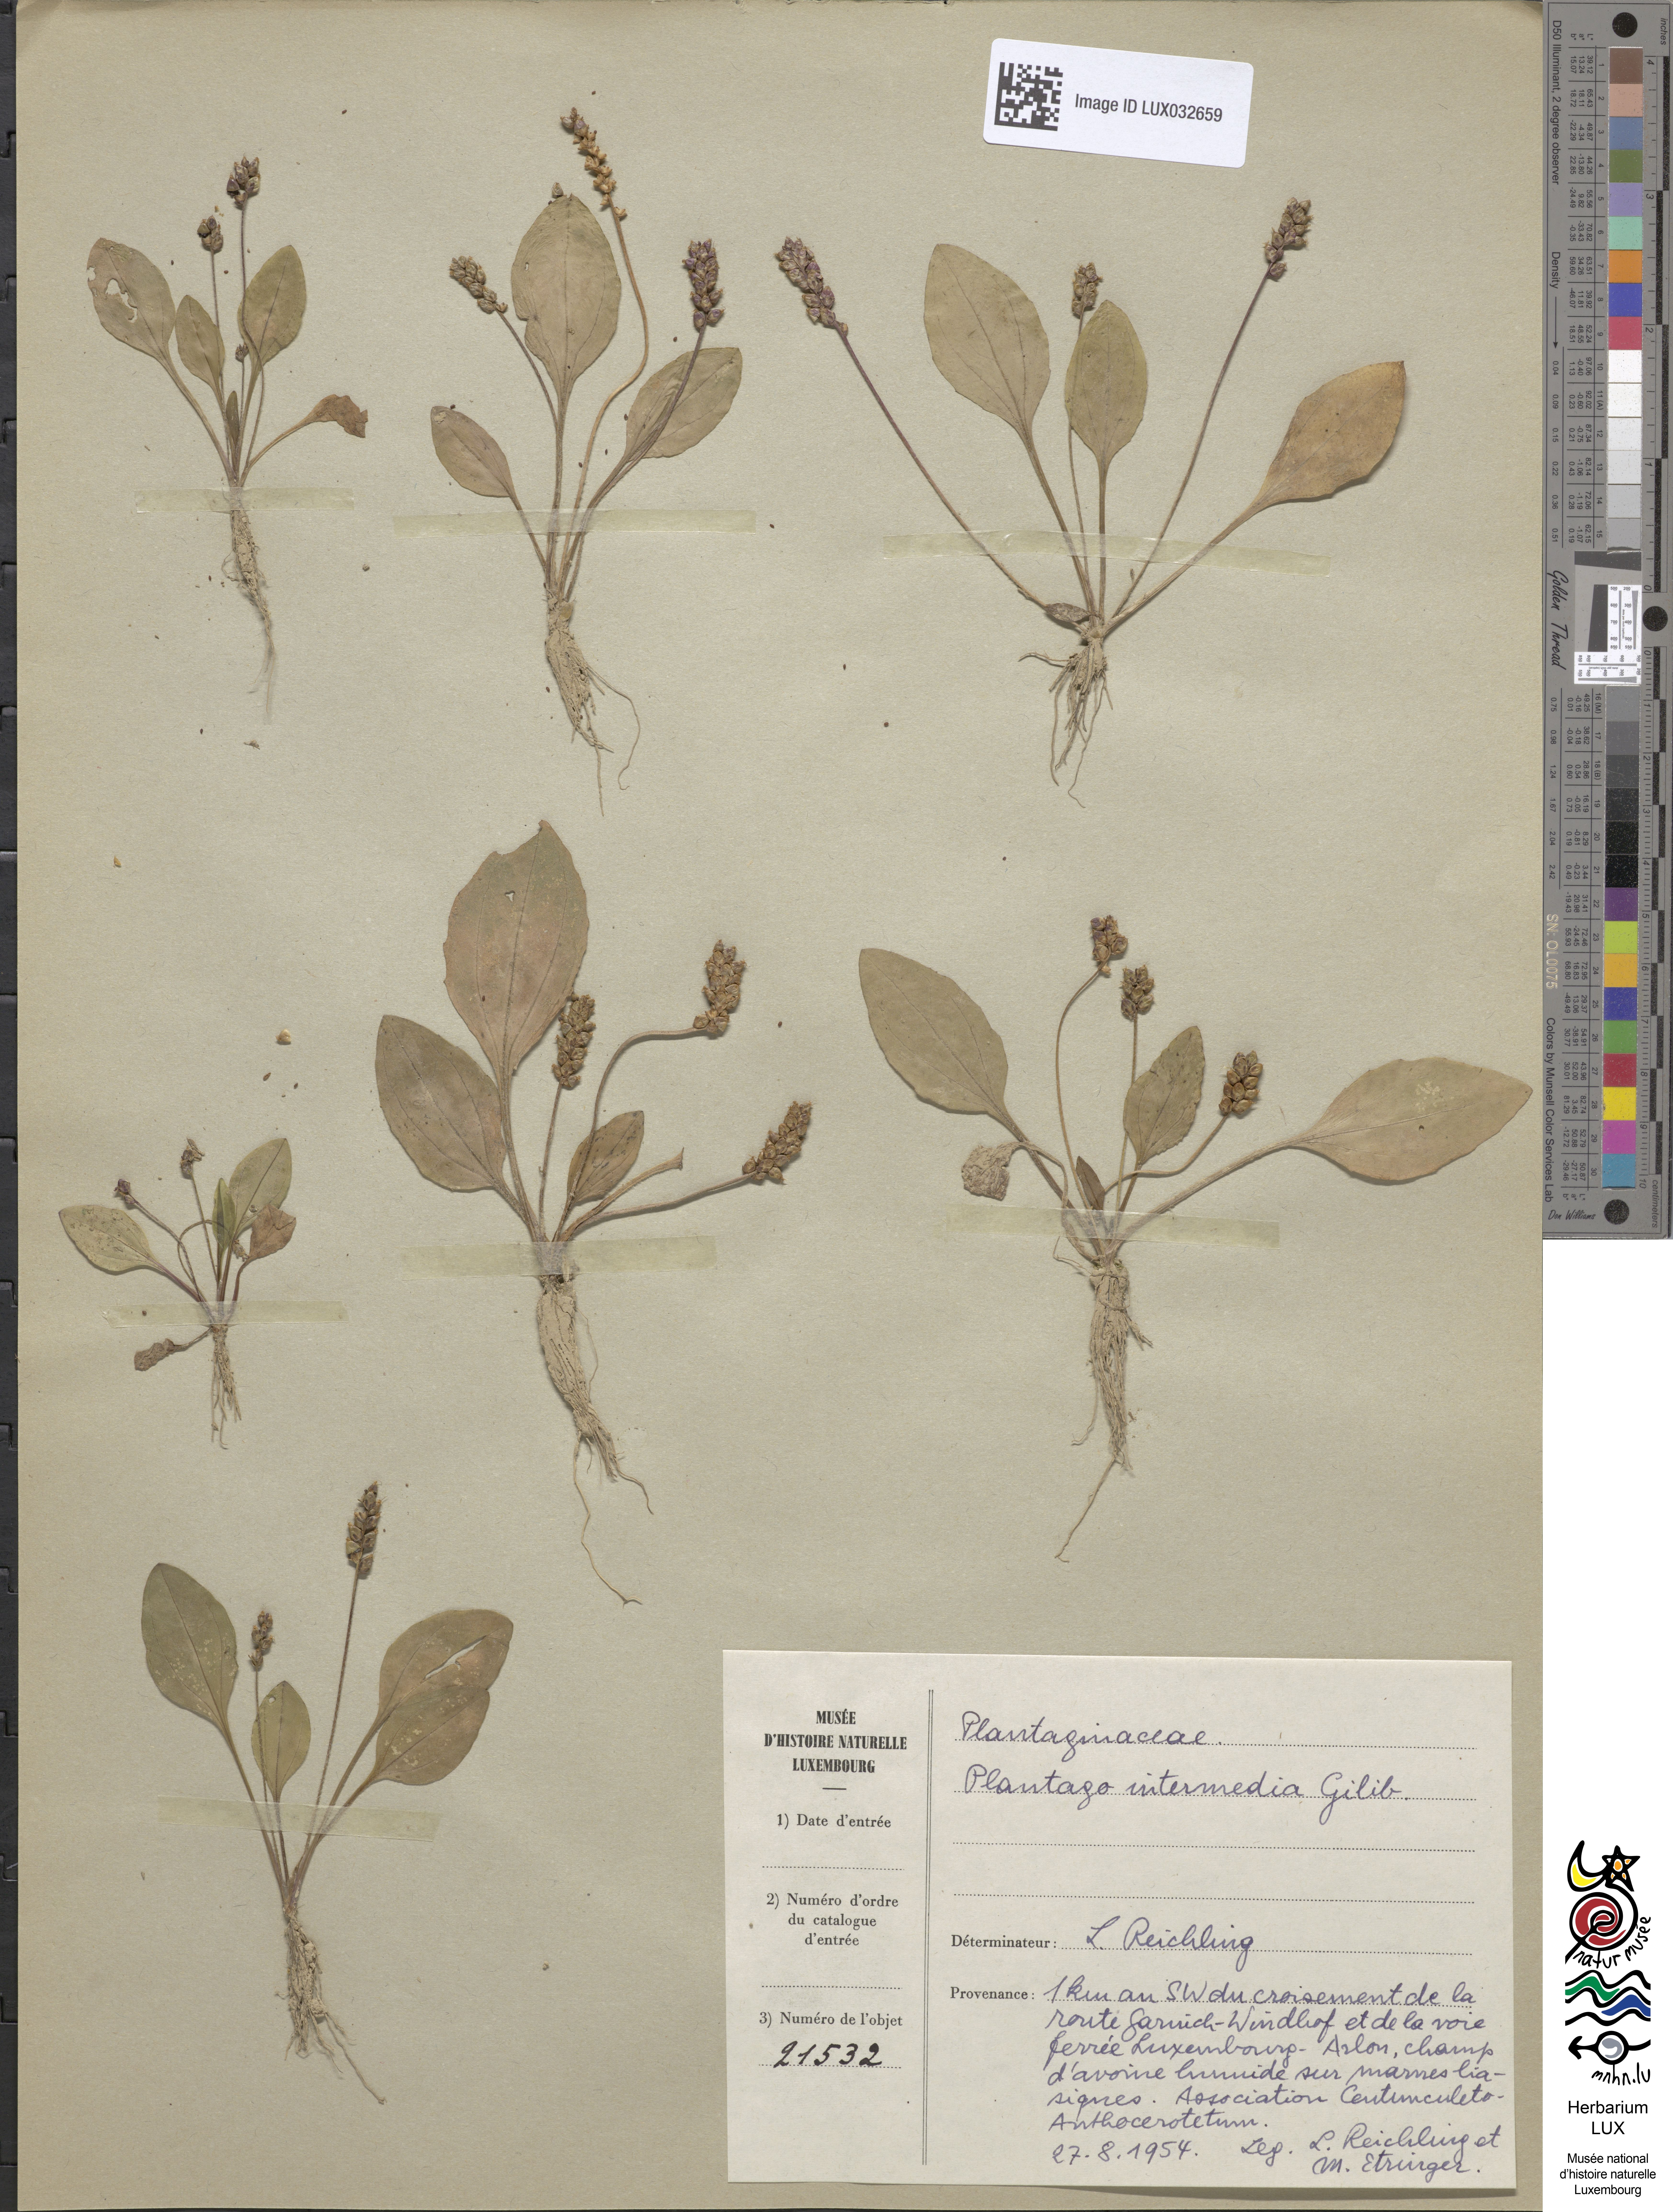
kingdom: Plantae
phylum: Tracheophyta
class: Magnoliopsida
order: Lamiales
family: Plantaginaceae
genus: Plantago
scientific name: Plantago uliginosa
